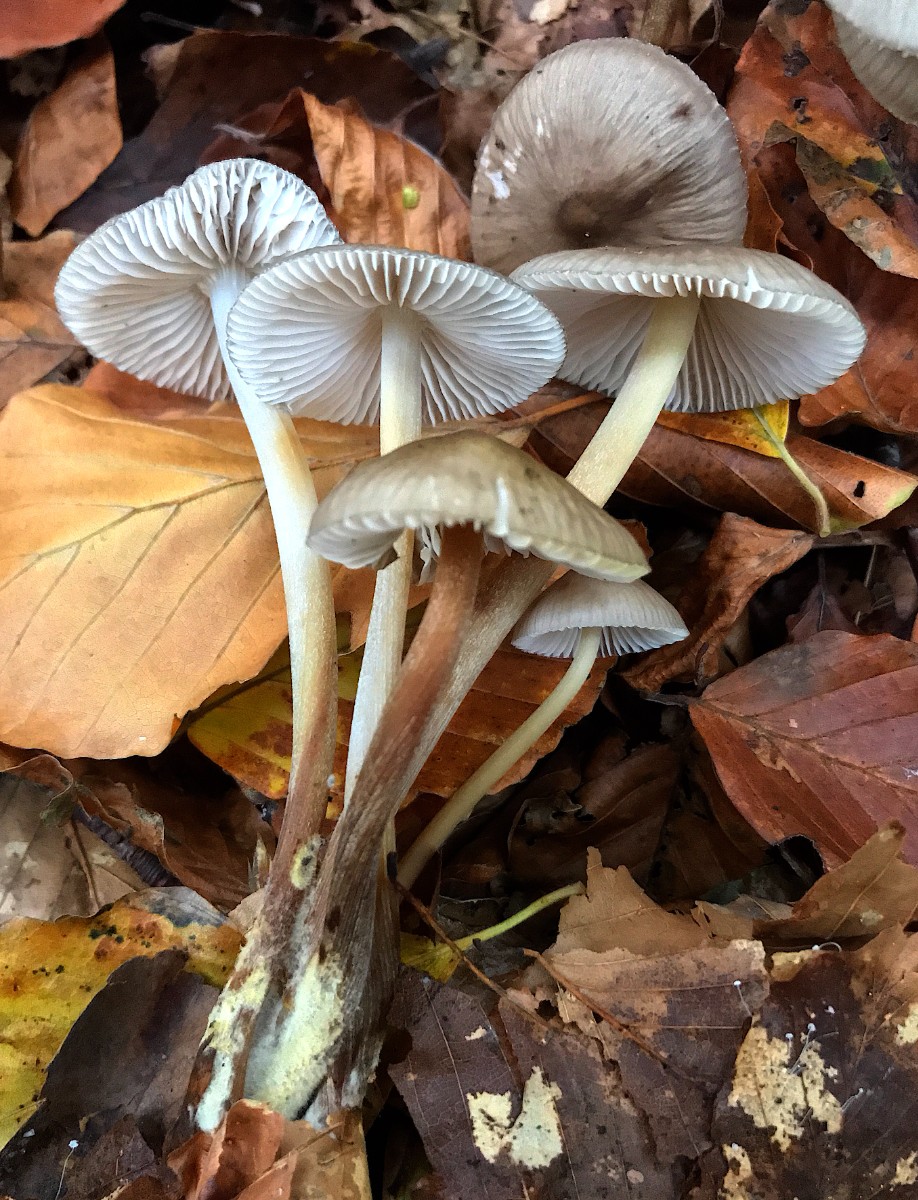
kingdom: Fungi
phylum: Basidiomycota
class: Agaricomycetes
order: Agaricales
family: Mycenaceae
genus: Mycena
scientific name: Mycena inclinata
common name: nikkende huesvamp
